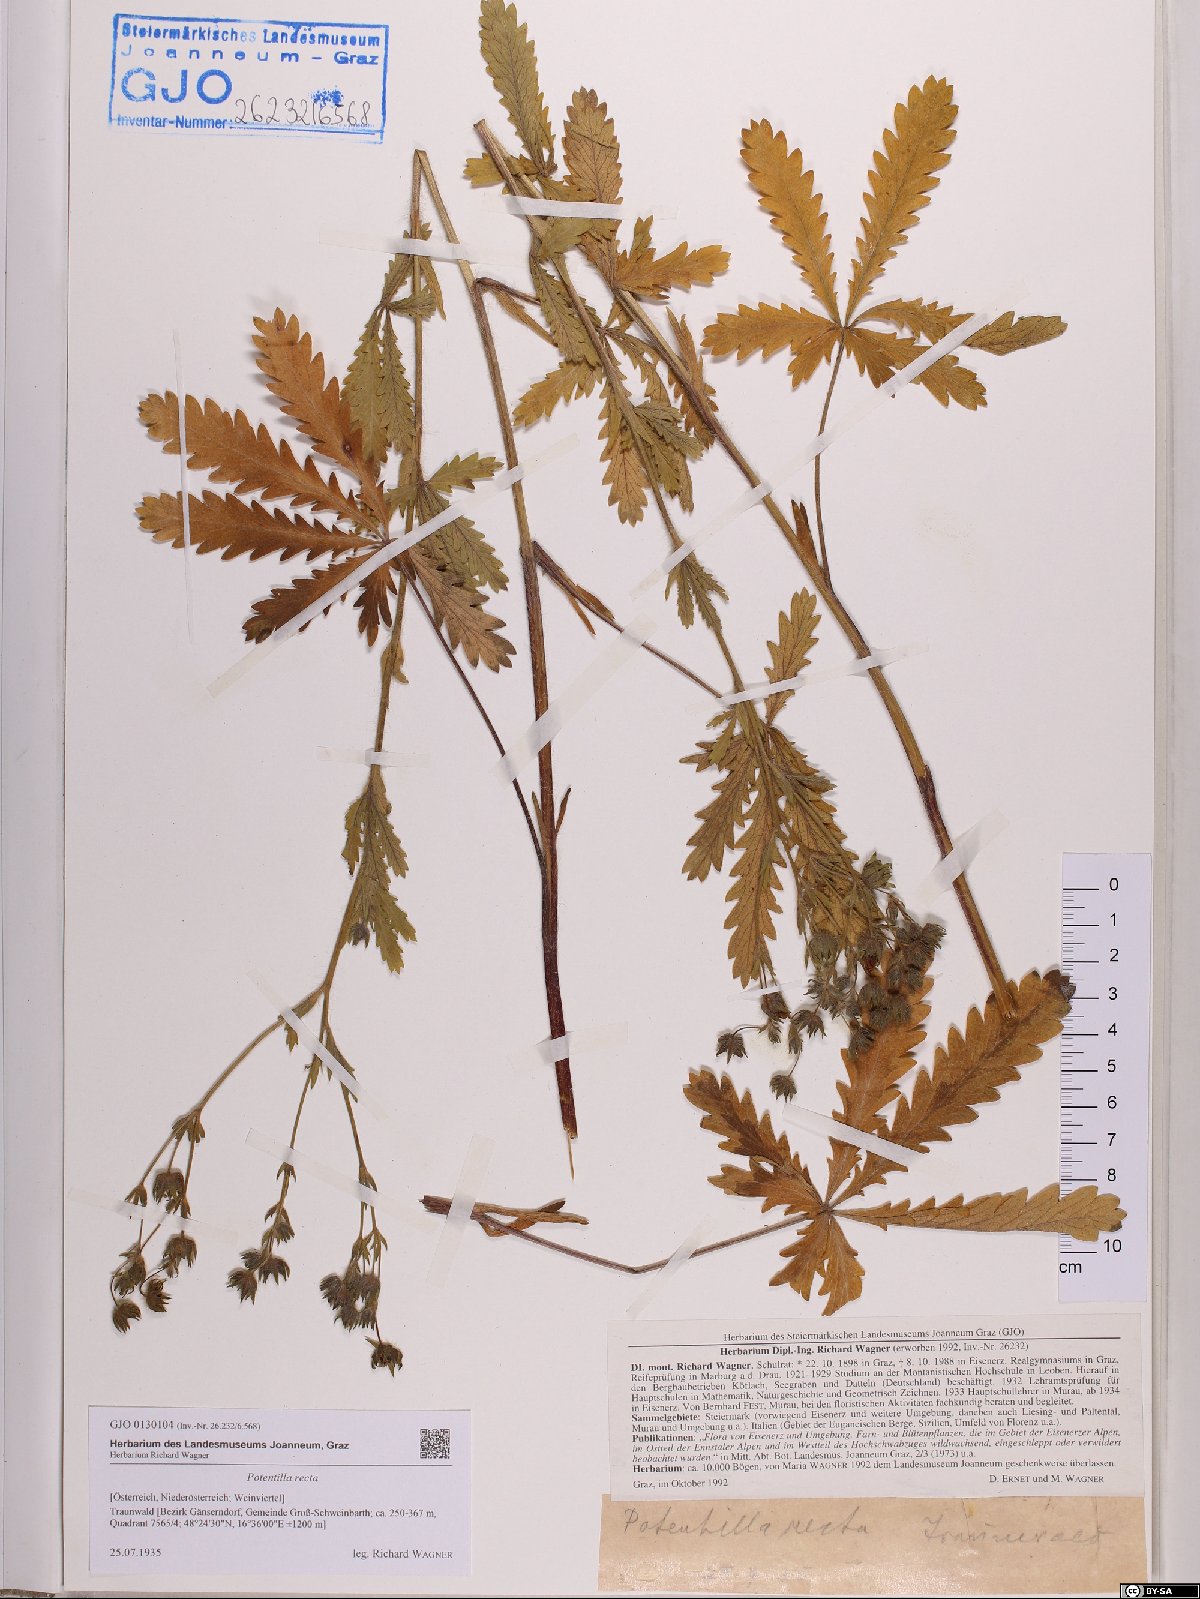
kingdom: Plantae
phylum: Tracheophyta
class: Magnoliopsida
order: Rosales
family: Rosaceae
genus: Potentilla
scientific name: Potentilla recta
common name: Sulphur cinquefoil
